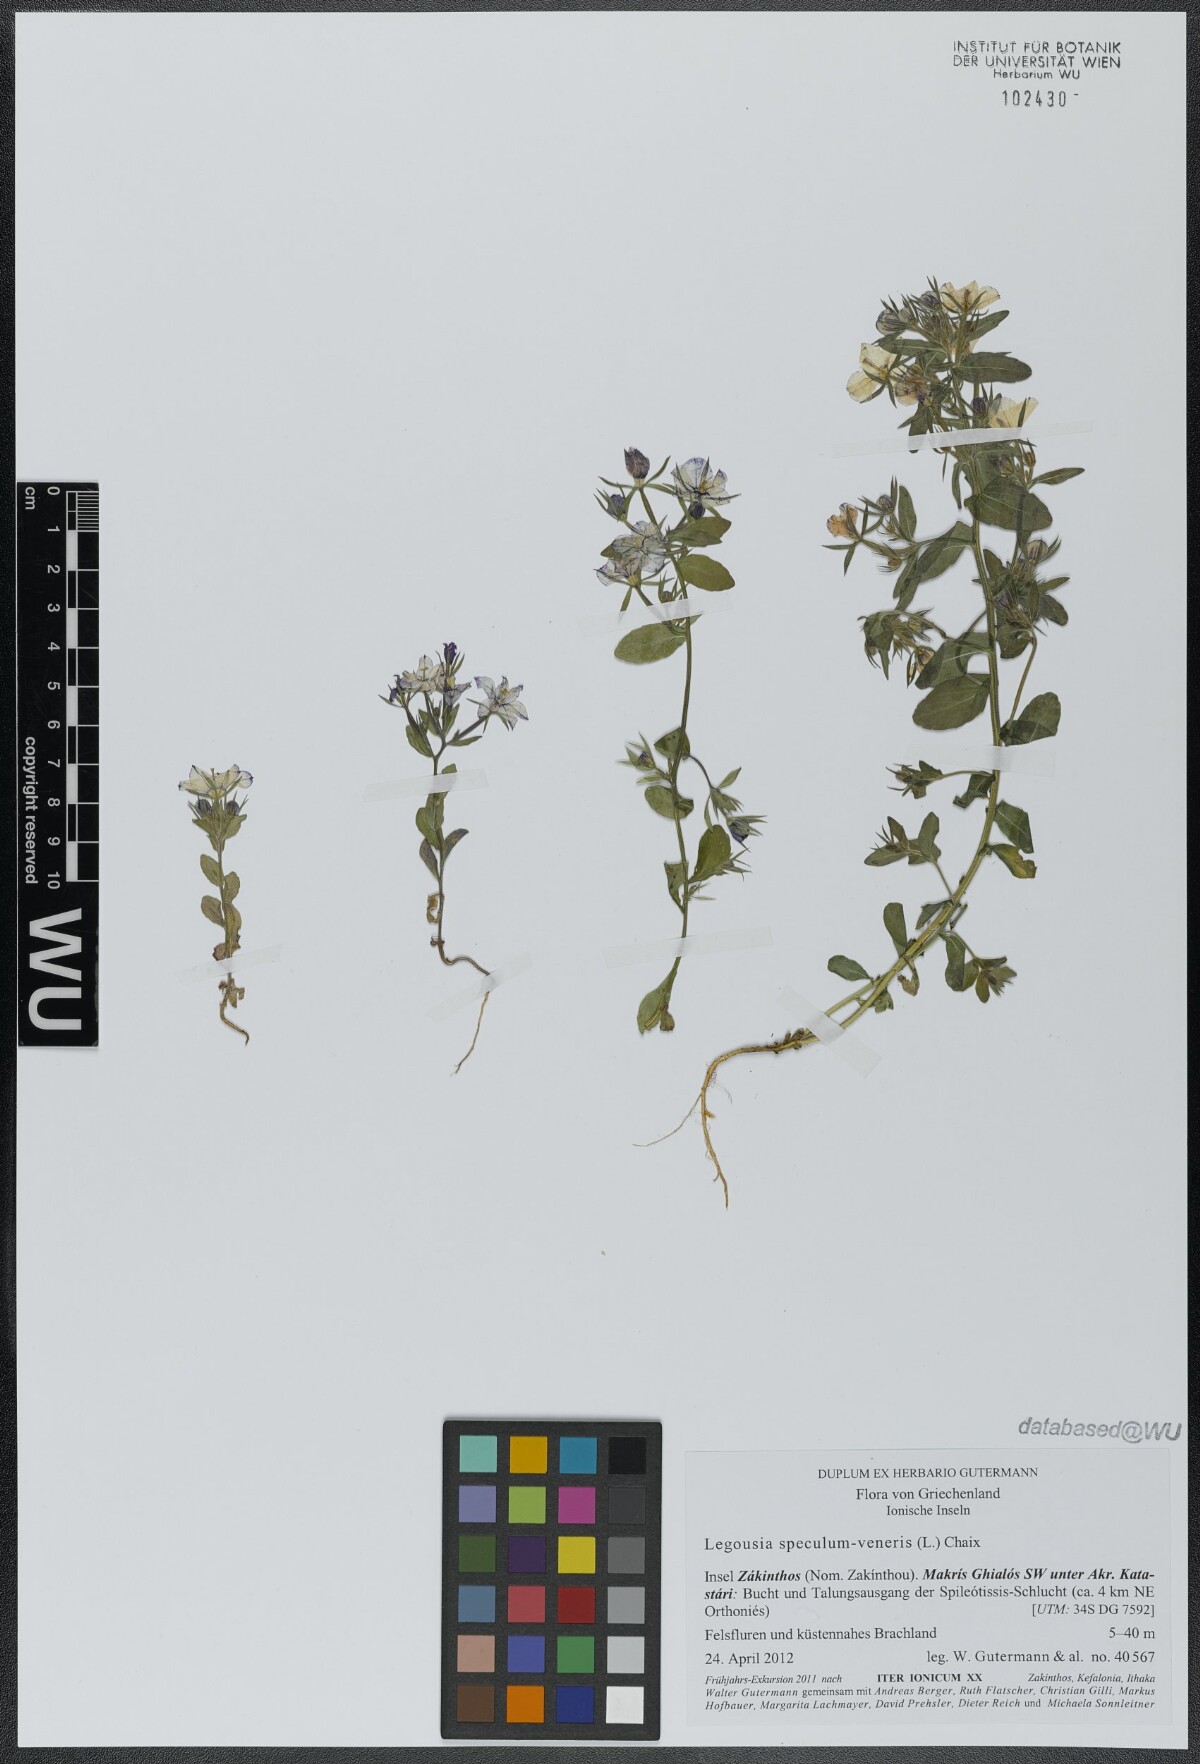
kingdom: Plantae
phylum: Tracheophyta
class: Magnoliopsida
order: Asterales
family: Campanulaceae
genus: Legousia
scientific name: Legousia speculum-veneris
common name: Large venus's-looking-glass
